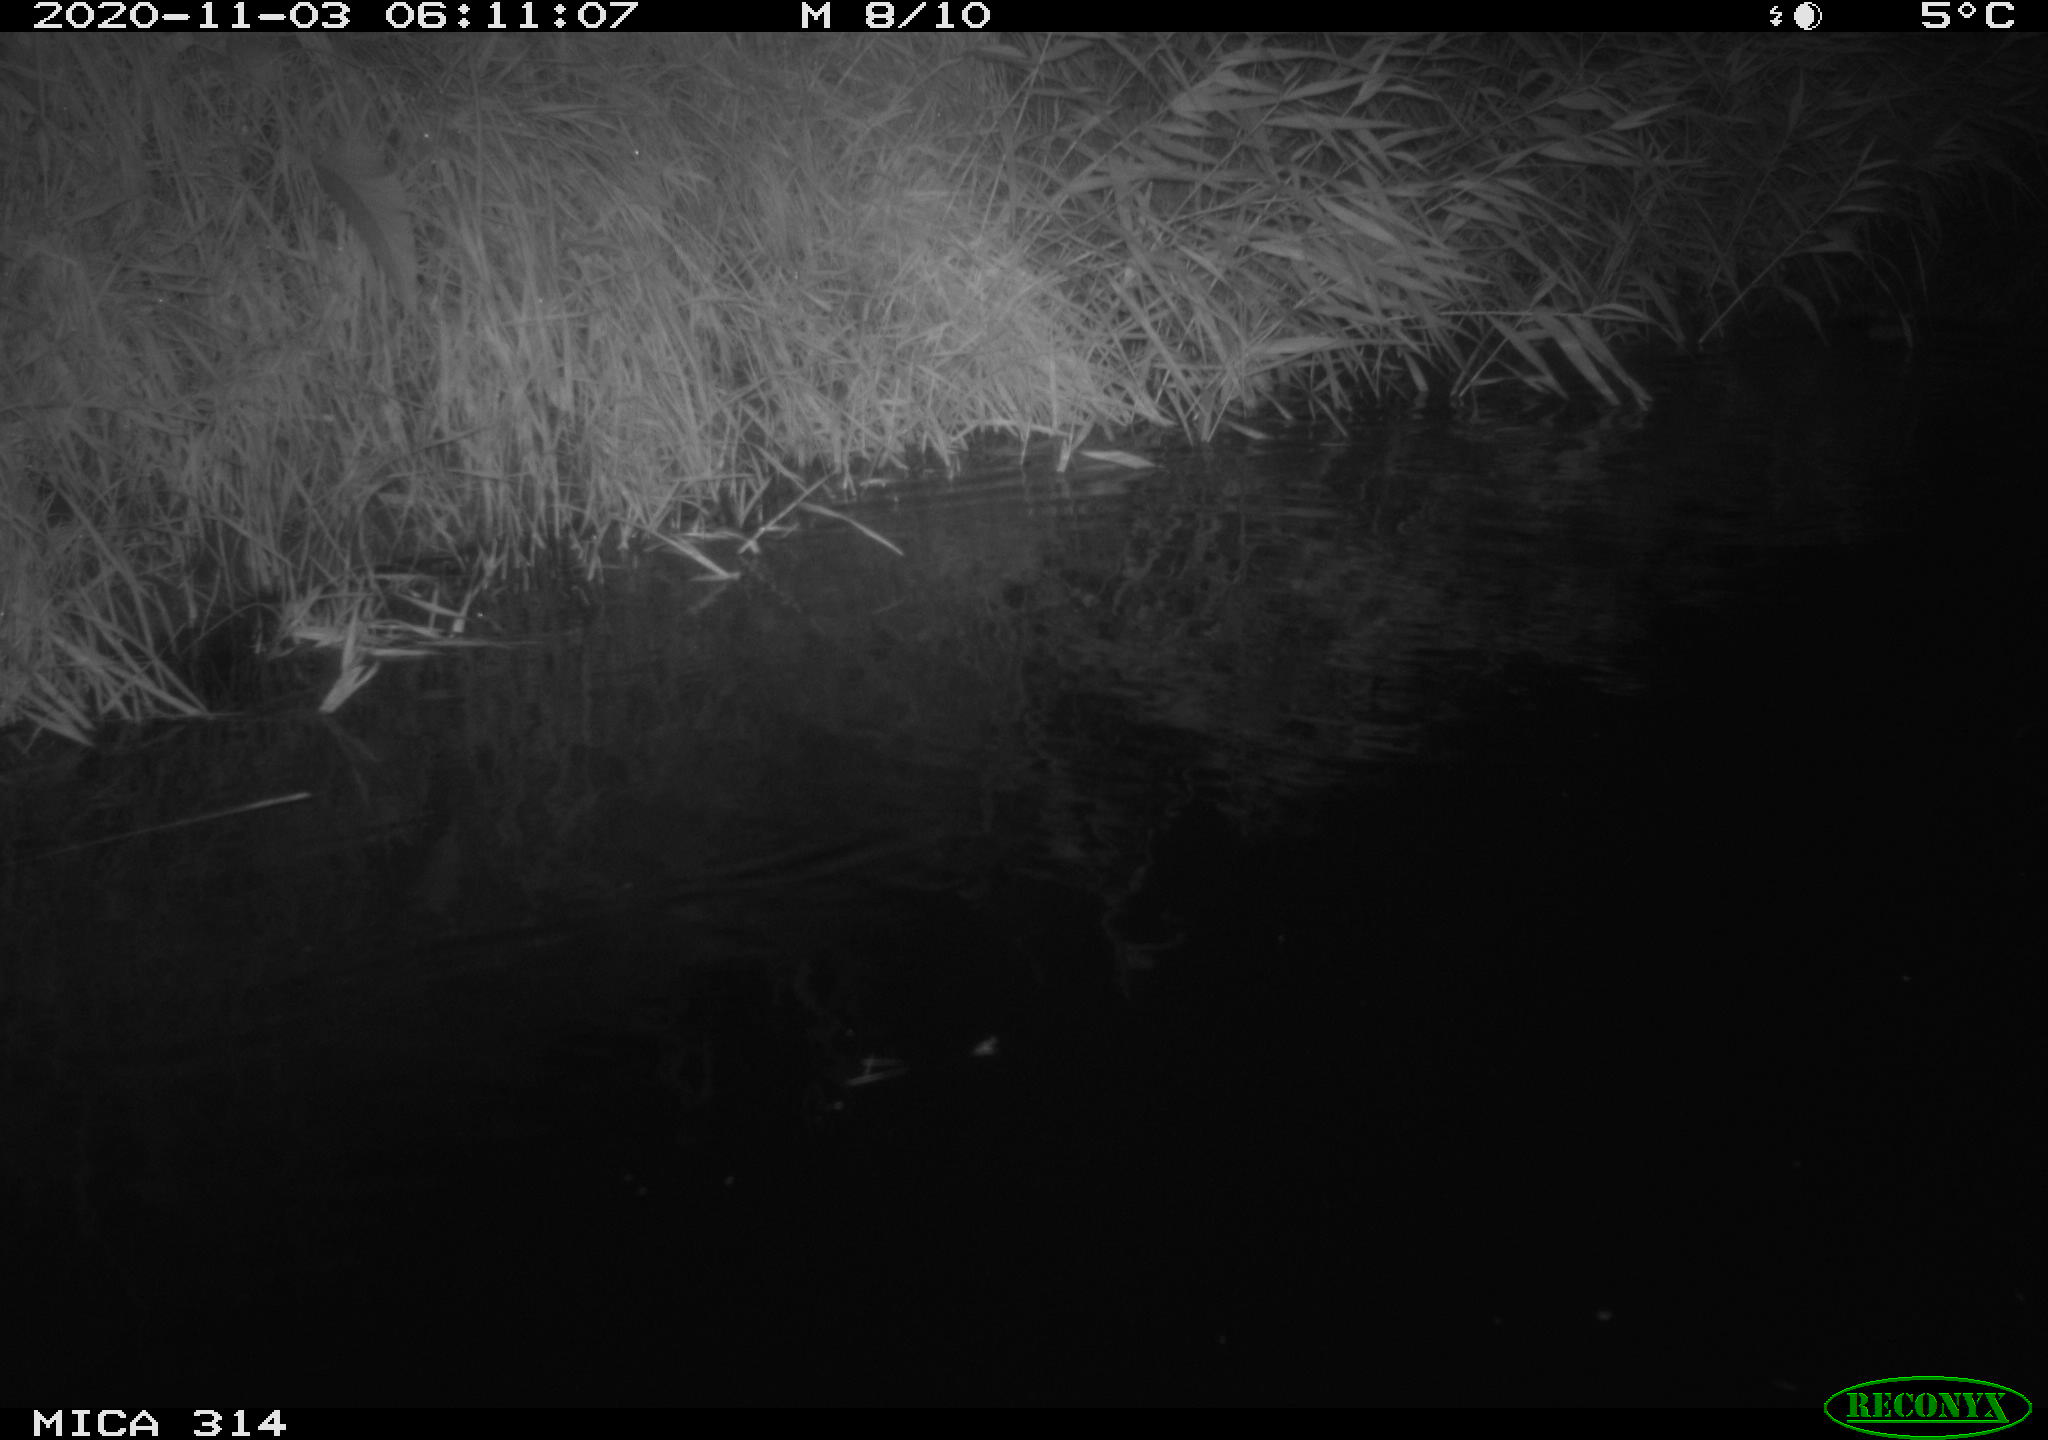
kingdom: Animalia
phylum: Chordata
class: Mammalia
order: Rodentia
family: Muridae
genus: Rattus
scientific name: Rattus norvegicus
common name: Brown rat
